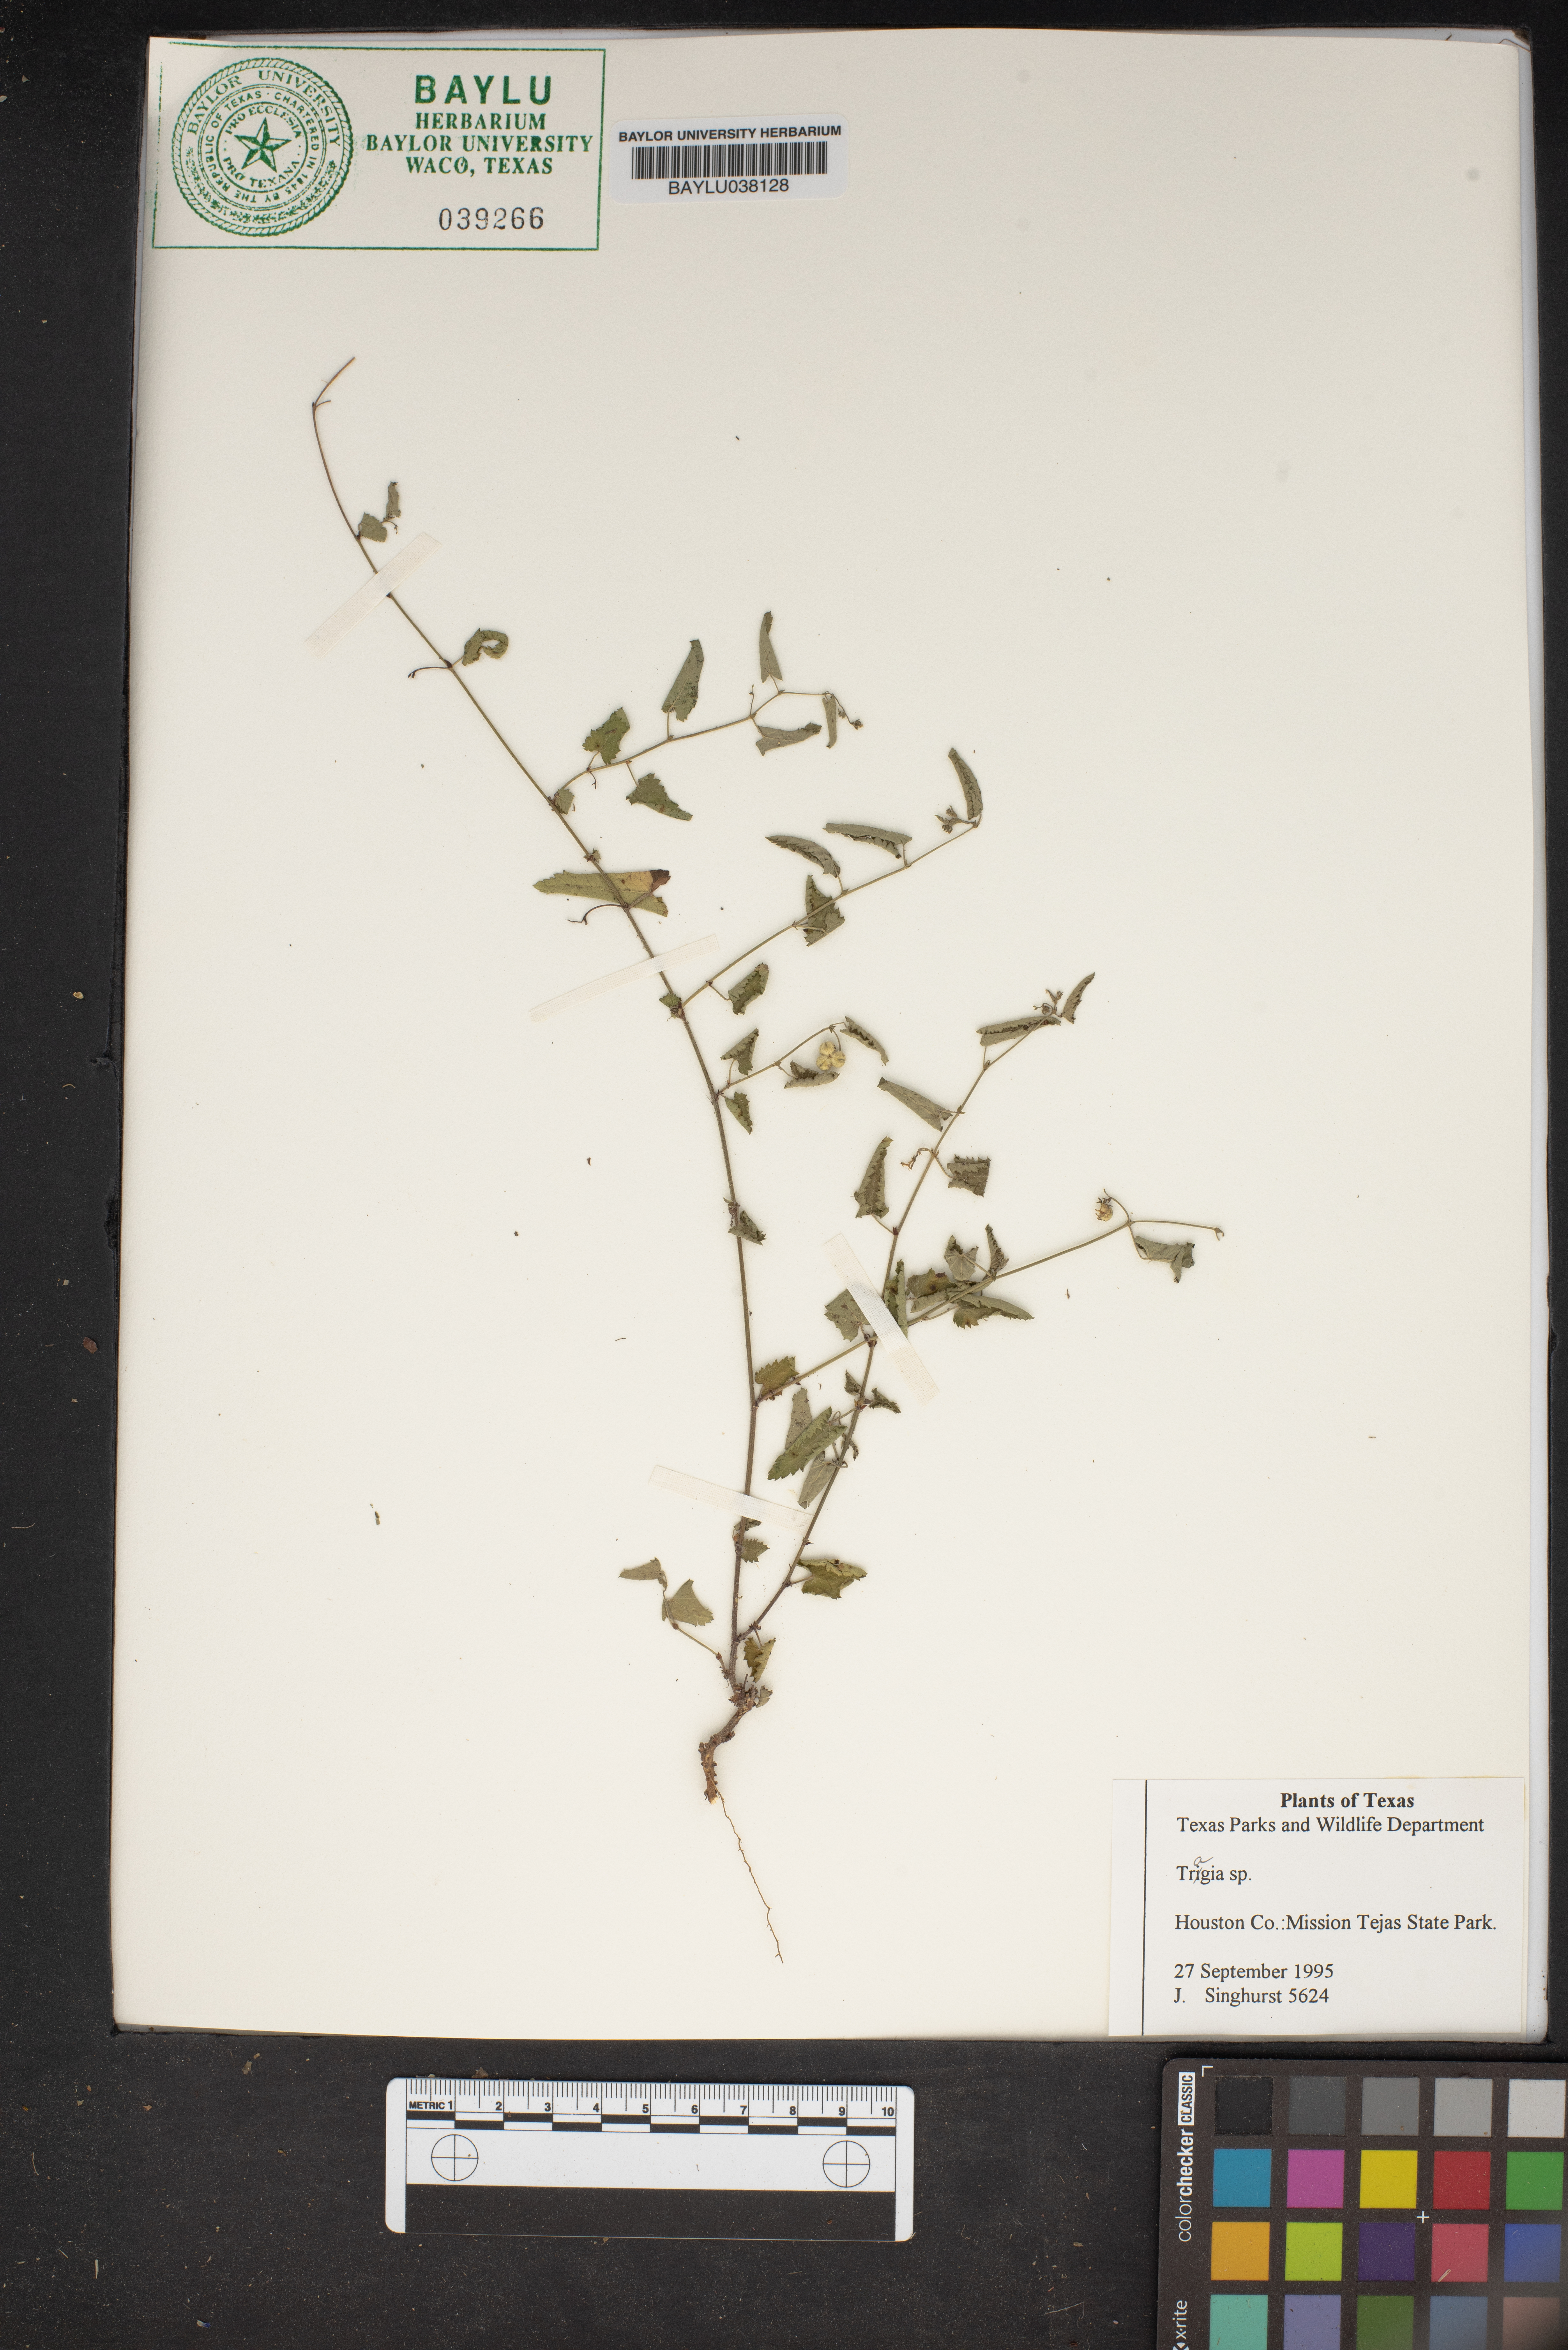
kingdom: Plantae
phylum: Tracheophyta
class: Magnoliopsida
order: Malpighiales
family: Euphorbiaceae
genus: Tragia
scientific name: Tragia
